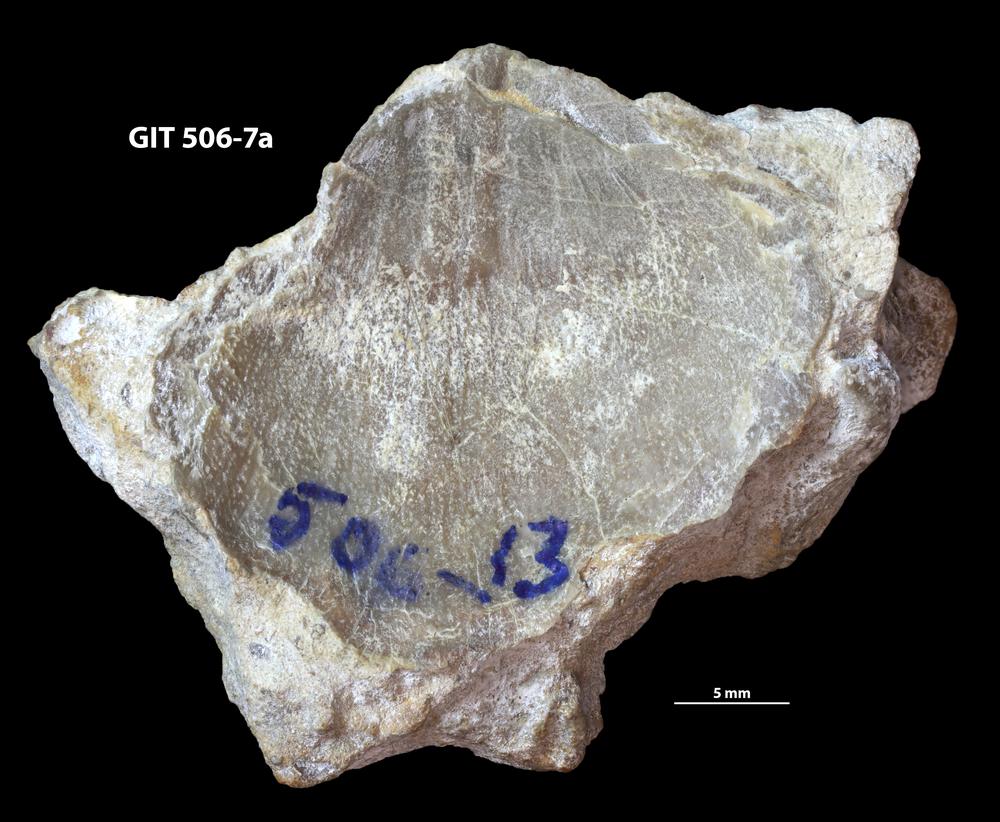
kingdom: Animalia
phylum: Brachiopoda
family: Stropheodontidae
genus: Strophodonta
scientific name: Strophodonta Brachyprion semiglobosa
